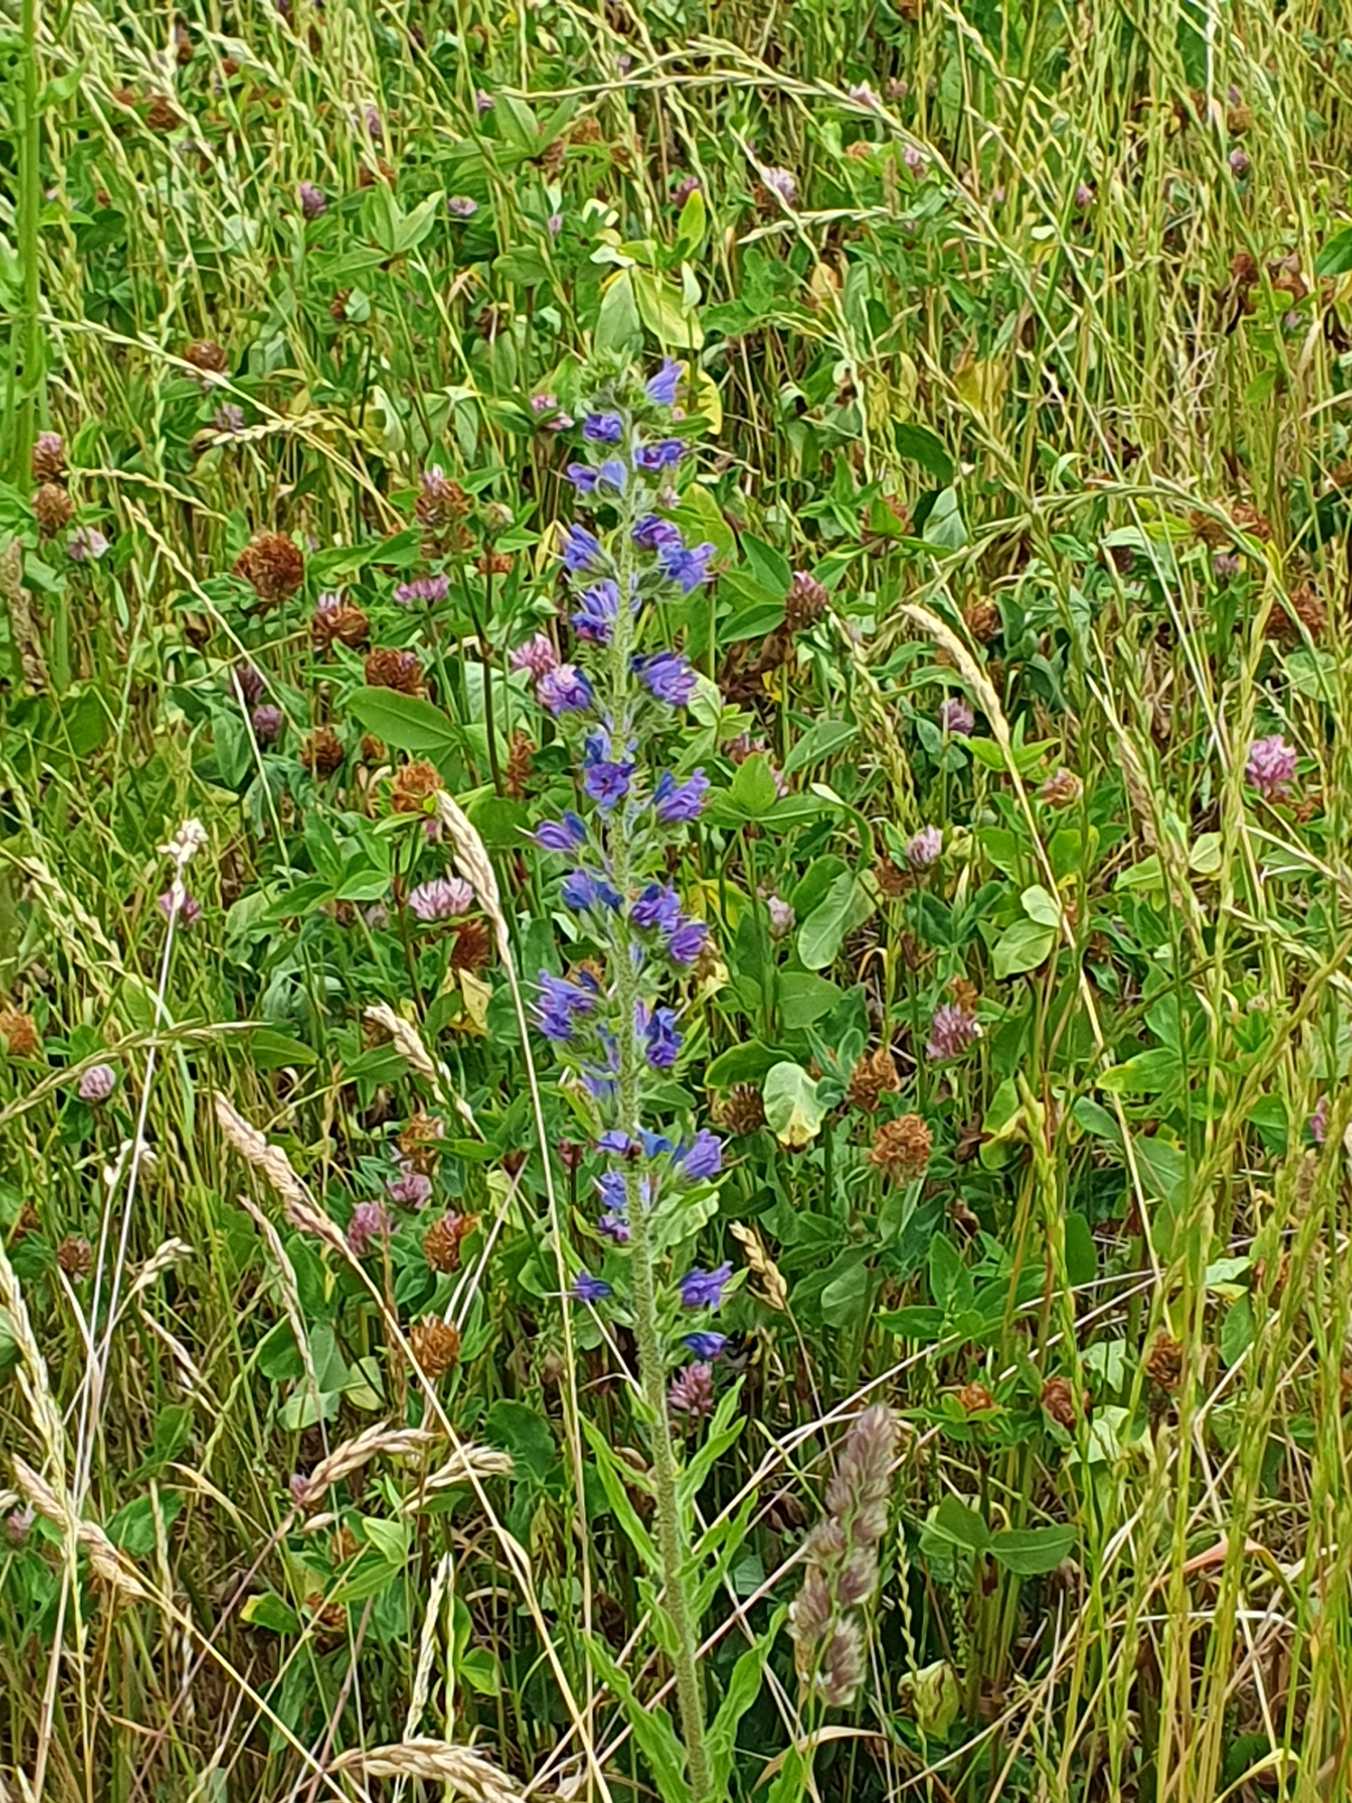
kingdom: Plantae
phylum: Tracheophyta
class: Magnoliopsida
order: Boraginales
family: Boraginaceae
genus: Echium
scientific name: Echium vulgare
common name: Slangehoved
